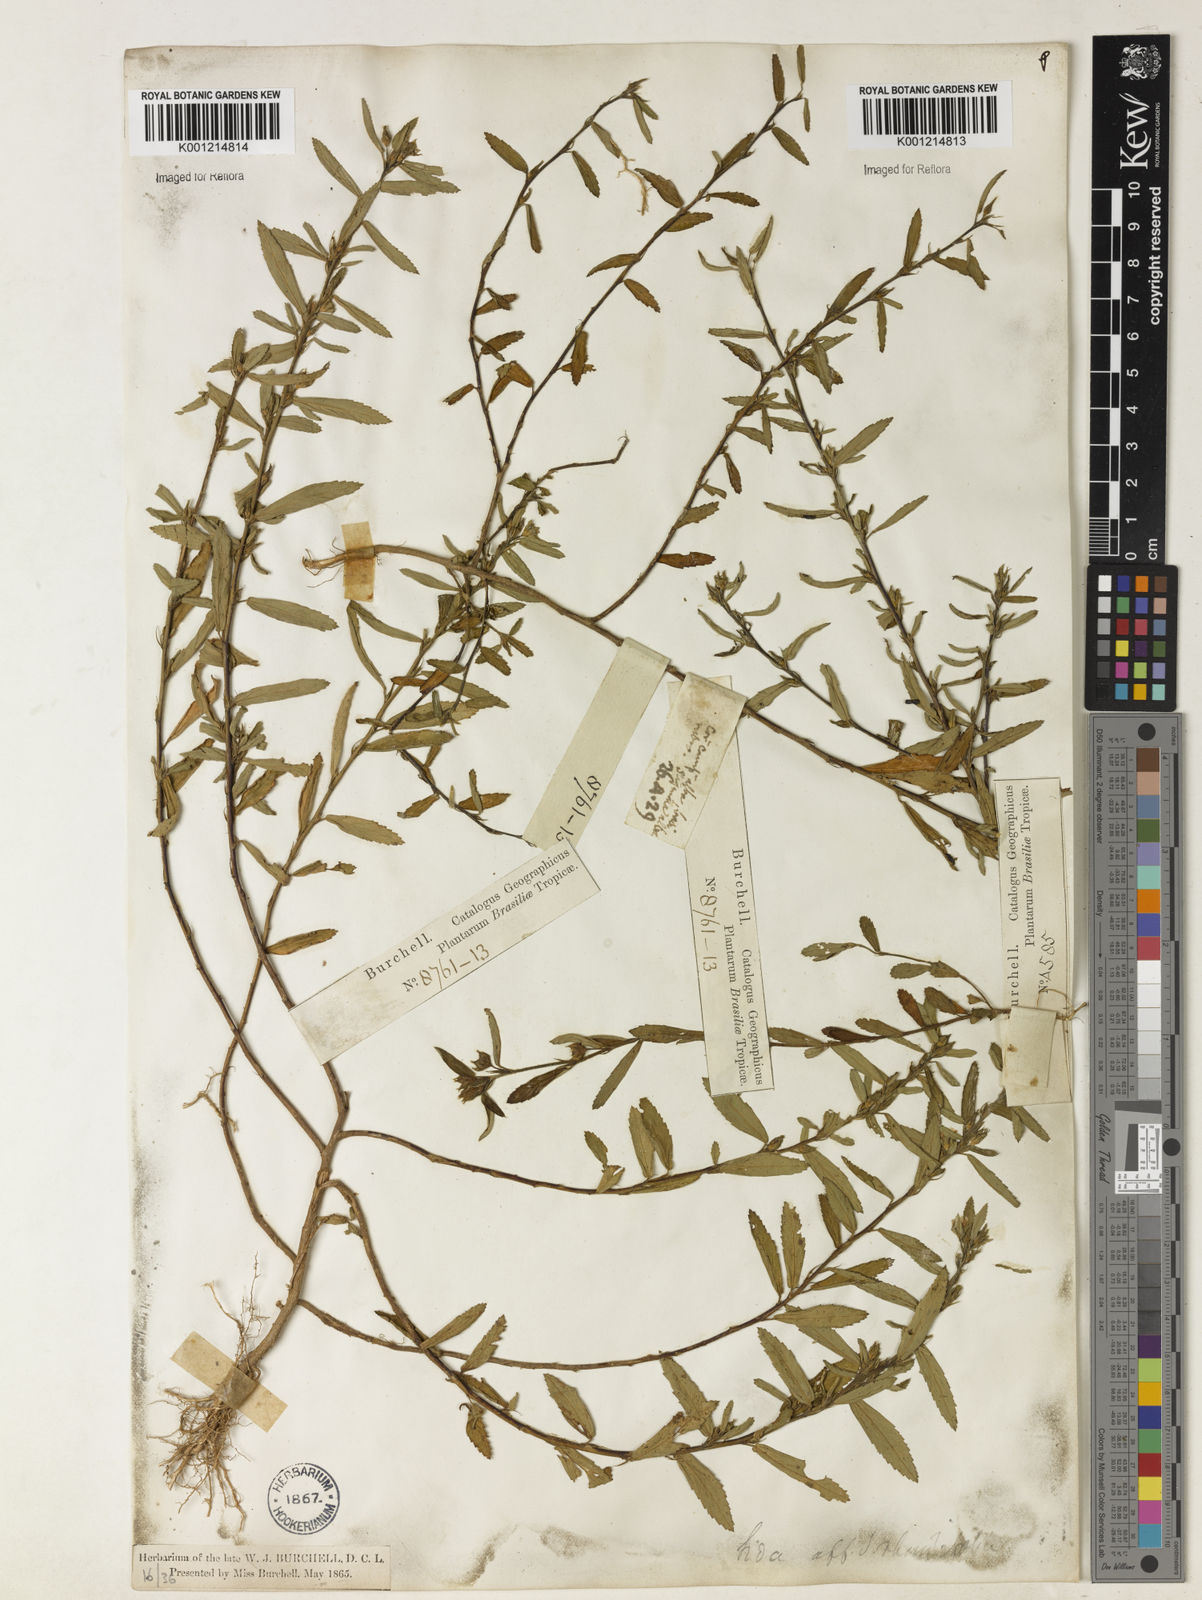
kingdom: Plantae
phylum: Tracheophyta
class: Magnoliopsida
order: Malvales
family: Malvaceae
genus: Sida
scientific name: Sida rhombifolia
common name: Queensland-hemp
